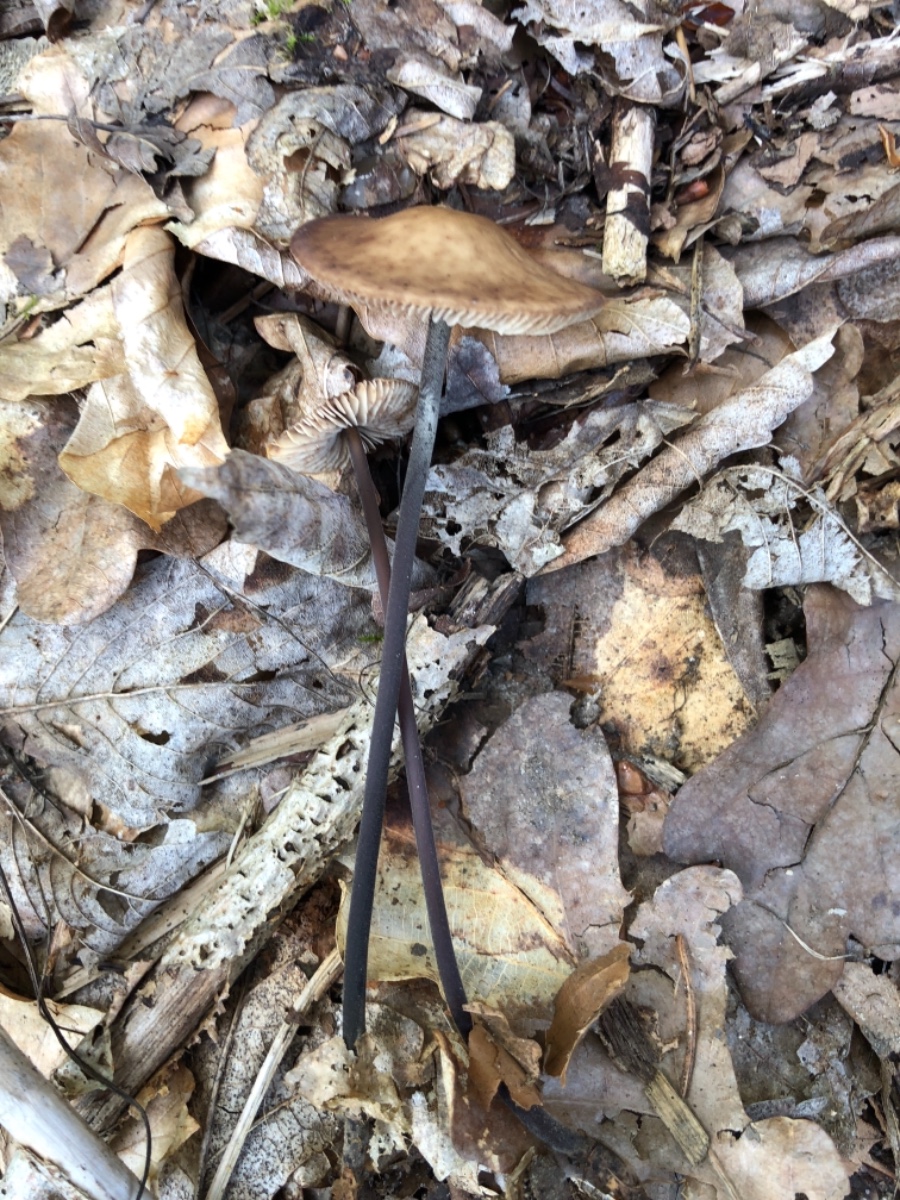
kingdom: Fungi
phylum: Basidiomycota
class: Agaricomycetes
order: Agaricales
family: Omphalotaceae
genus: Mycetinis
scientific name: Mycetinis alliaceus
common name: stor løghat
